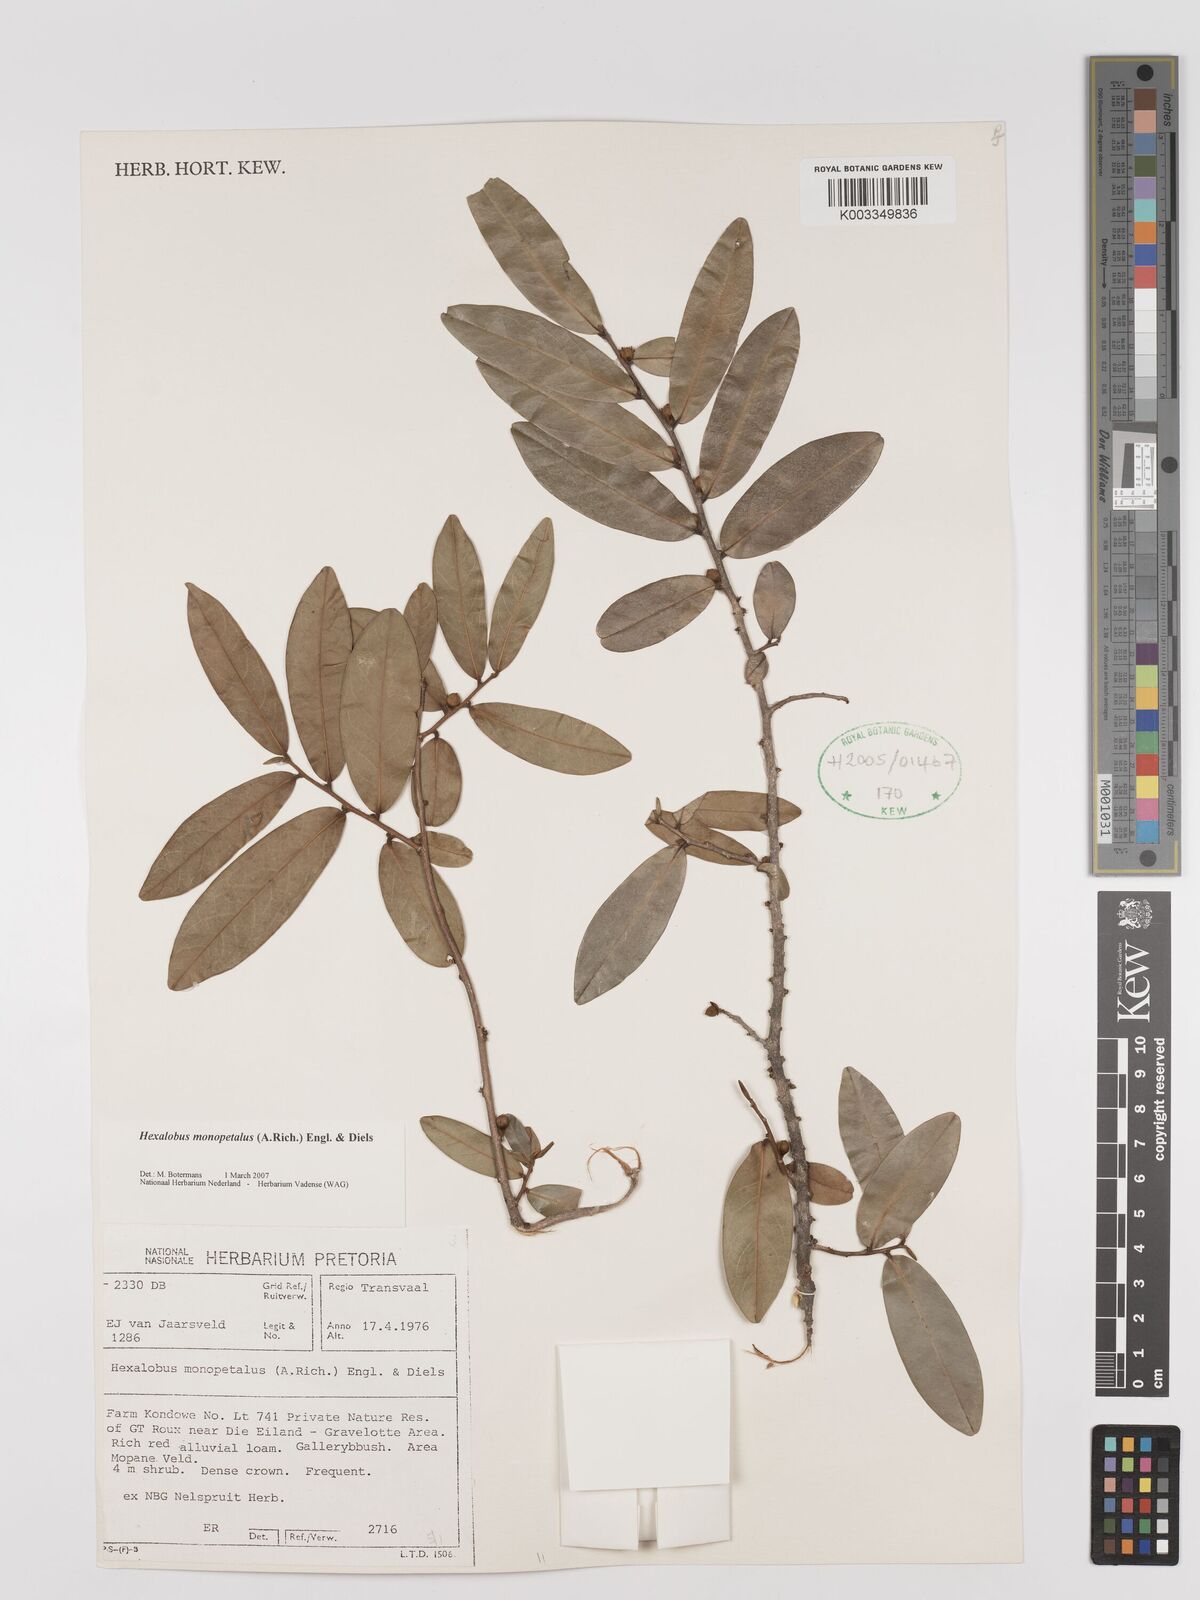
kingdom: Plantae
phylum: Tracheophyta
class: Magnoliopsida
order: Magnoliales
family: Annonaceae
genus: Hexalobus
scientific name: Hexalobus monopetalus
